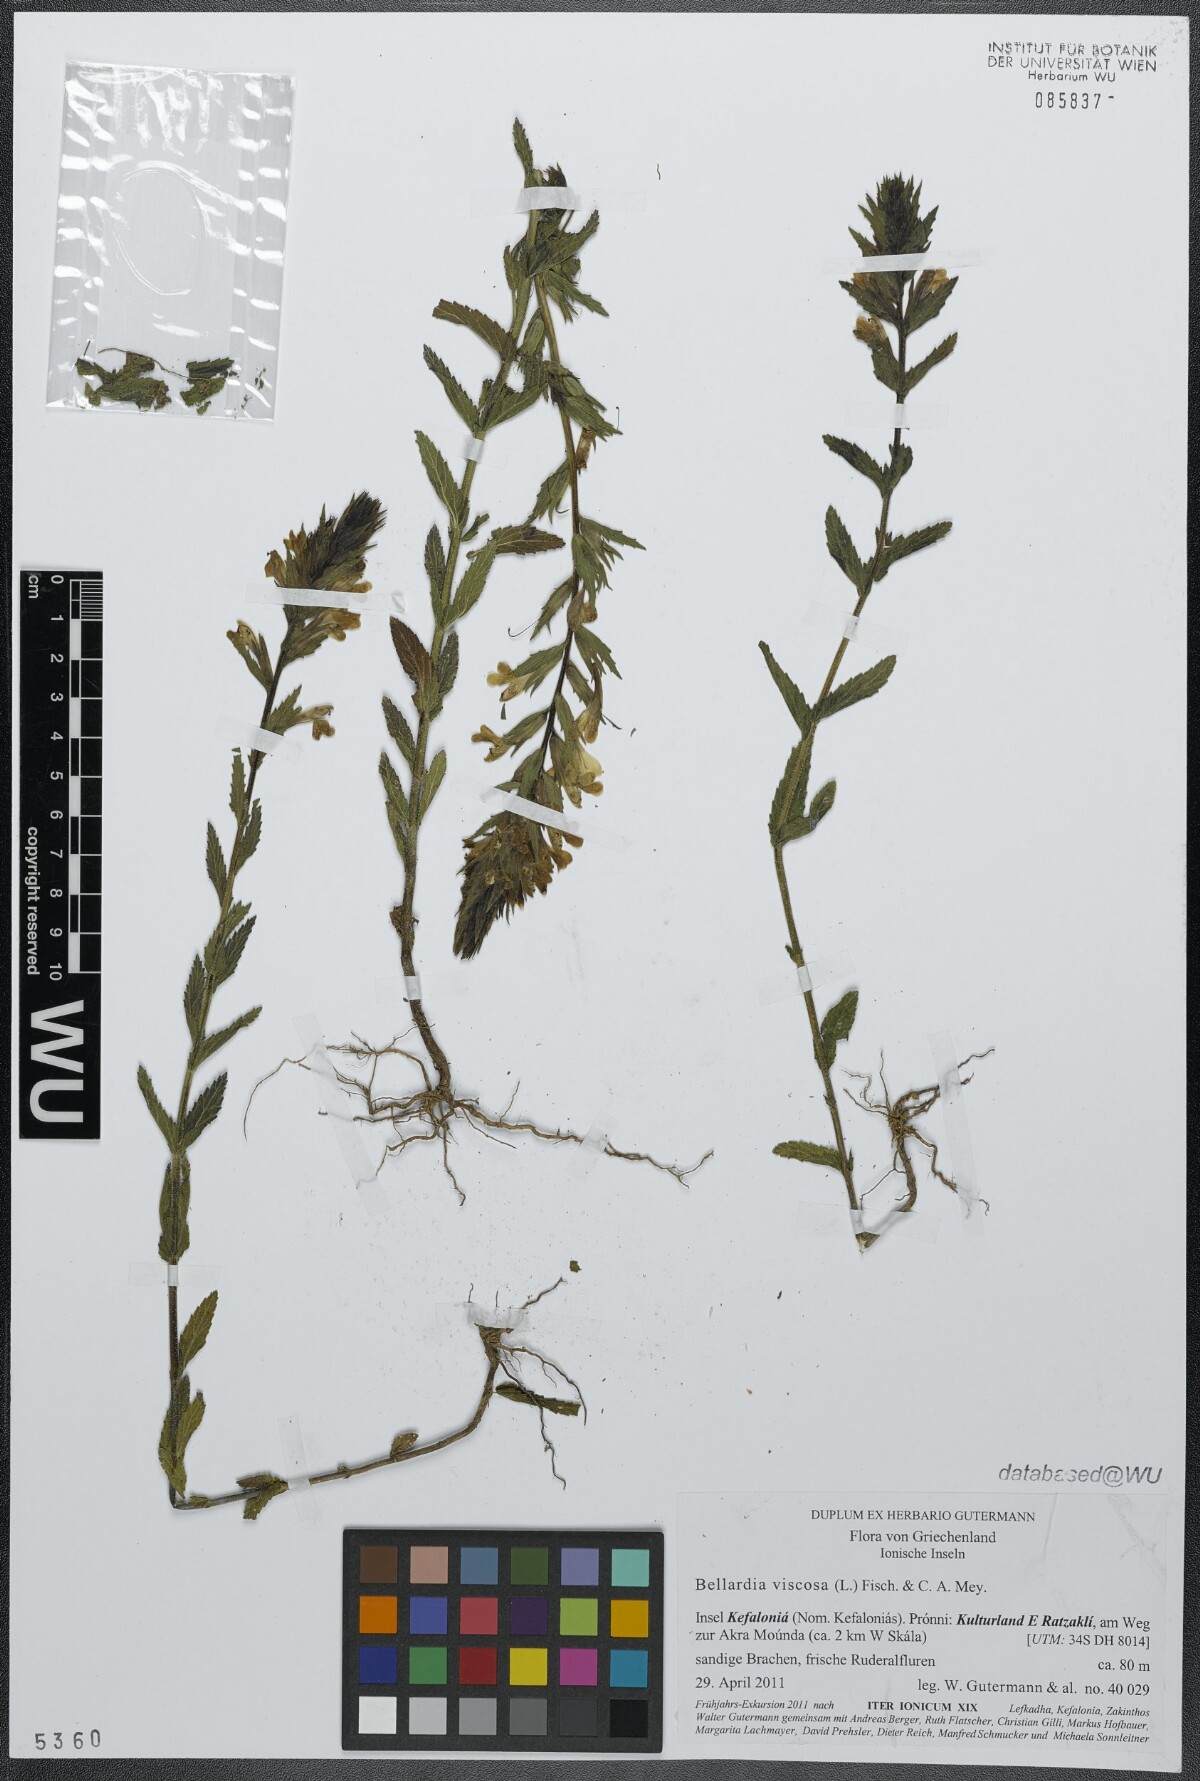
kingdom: Plantae
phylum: Tracheophyta
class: Magnoliopsida
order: Lamiales
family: Orobanchaceae
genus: Bellardia
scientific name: Bellardia viscosa
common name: Sticky parentucellia
